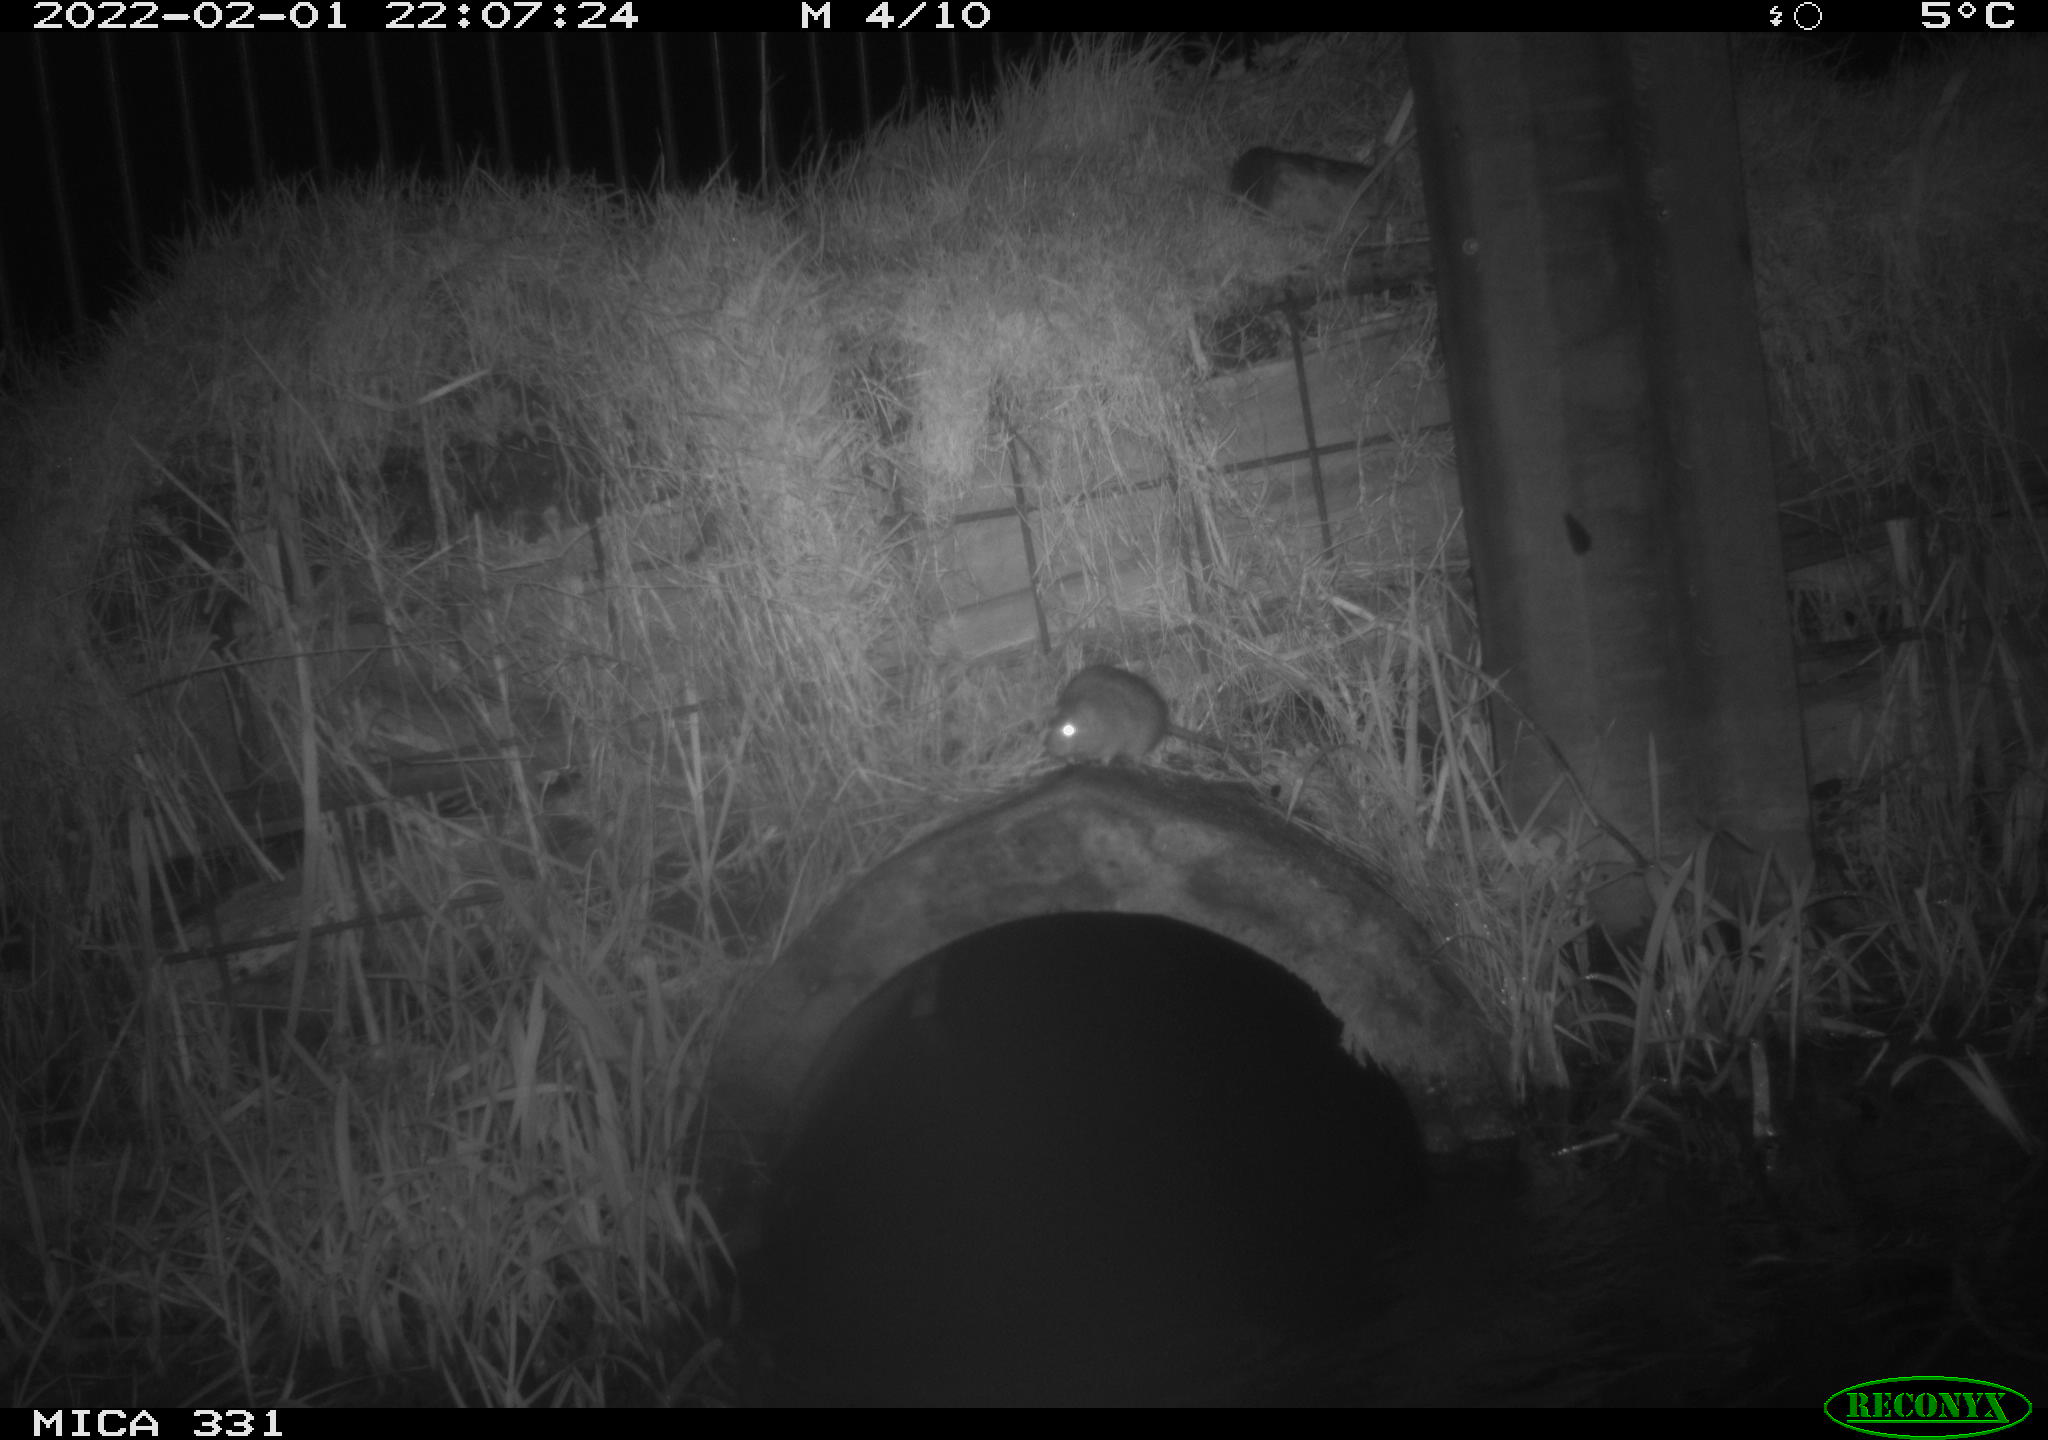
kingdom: Animalia
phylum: Chordata
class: Mammalia
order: Rodentia
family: Muridae
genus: Rattus
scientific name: Rattus norvegicus
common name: Brown rat
